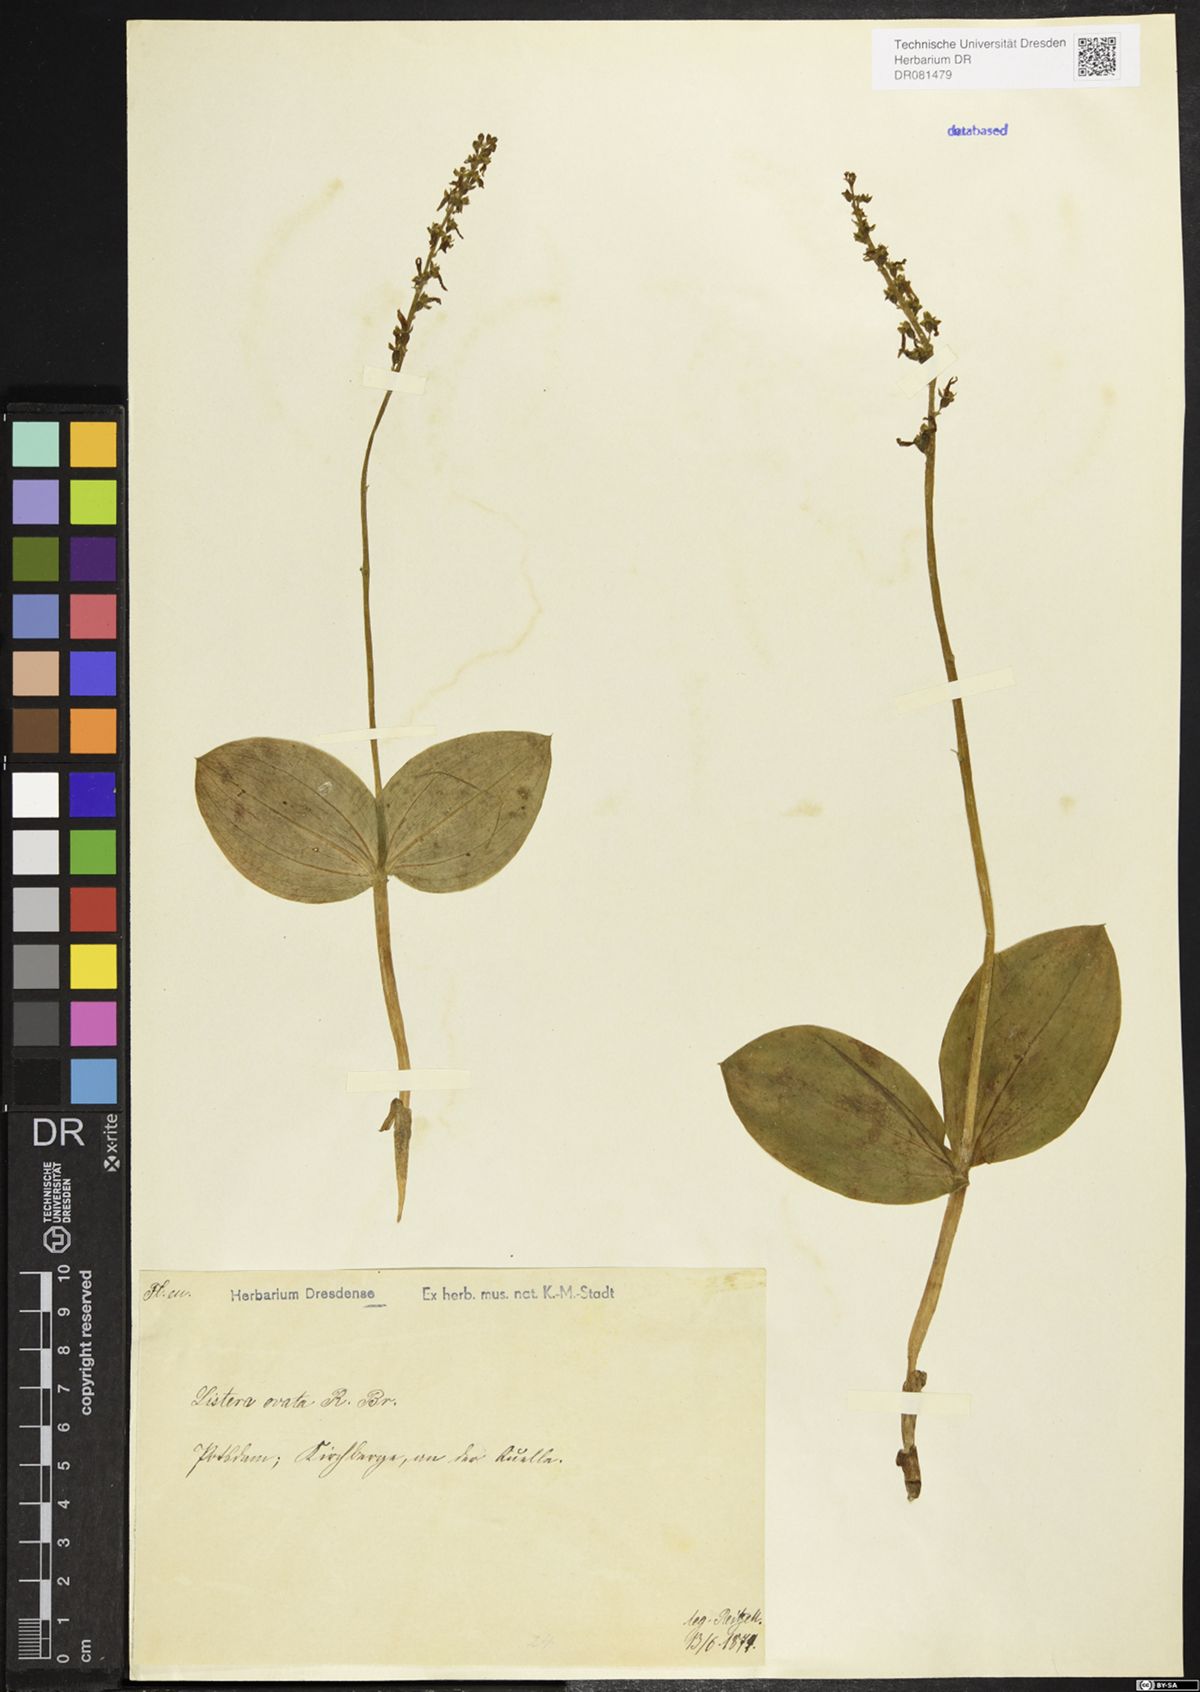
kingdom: Plantae
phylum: Tracheophyta
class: Liliopsida
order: Asparagales
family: Orchidaceae
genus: Neottia
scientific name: Neottia ovata
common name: Common twayblade
